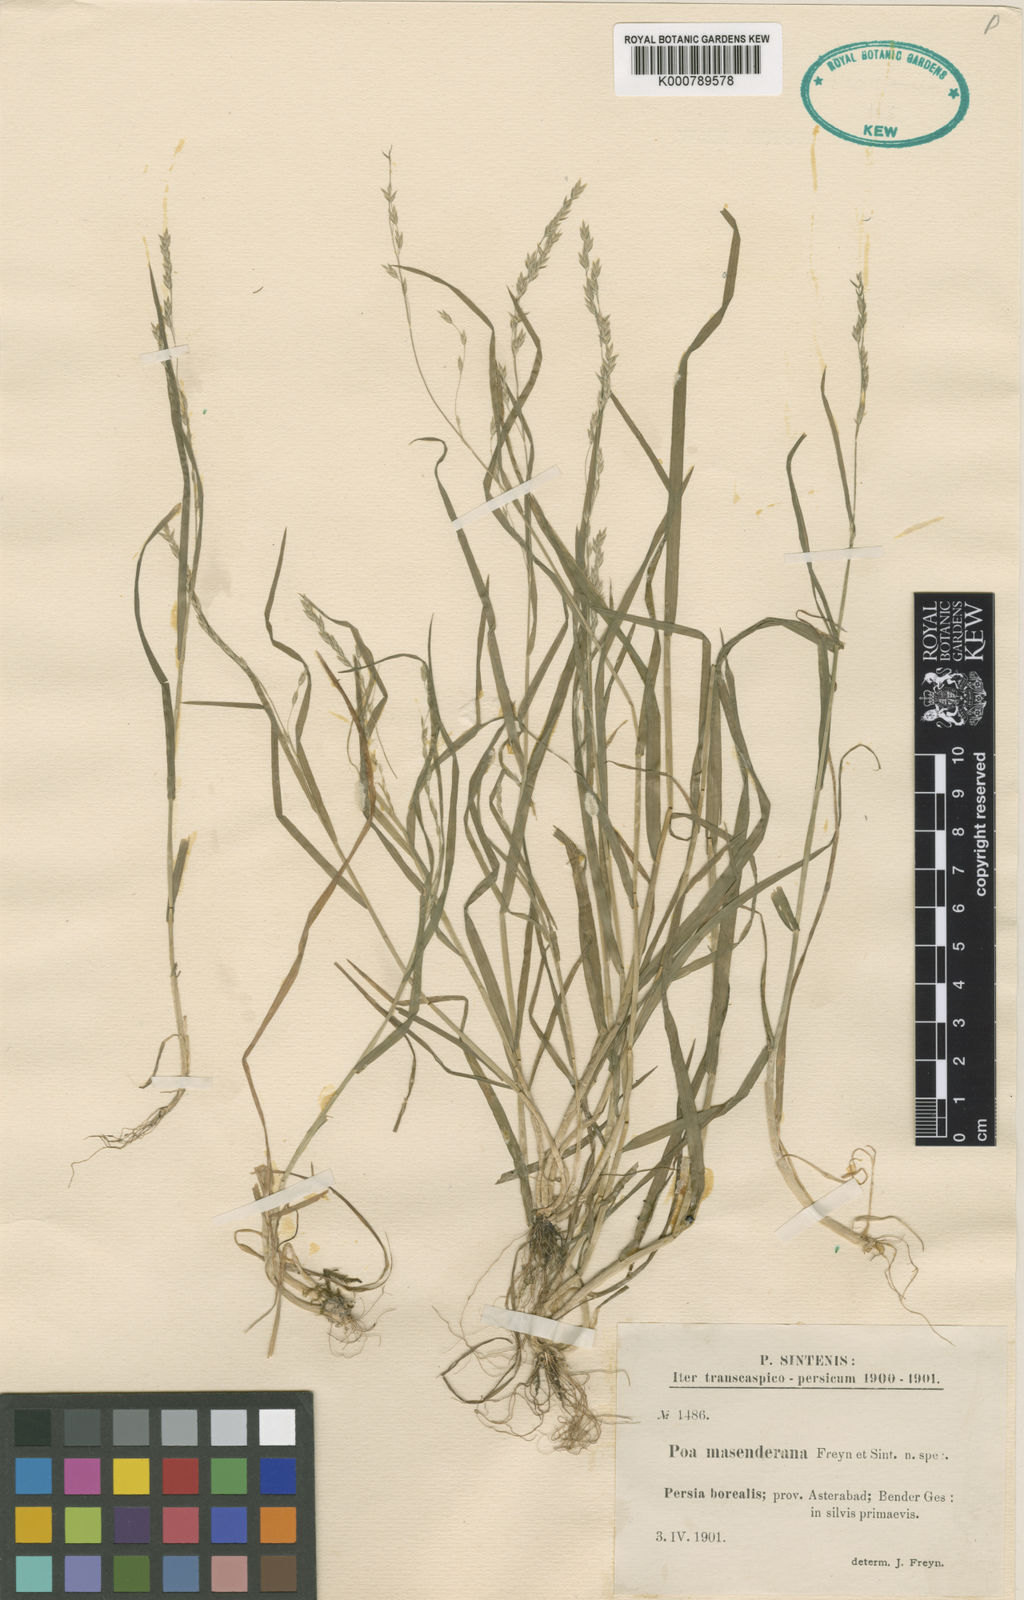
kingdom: Plantae
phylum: Tracheophyta
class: Liliopsida
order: Poales
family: Poaceae
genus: Poa
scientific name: Poa masenderana
